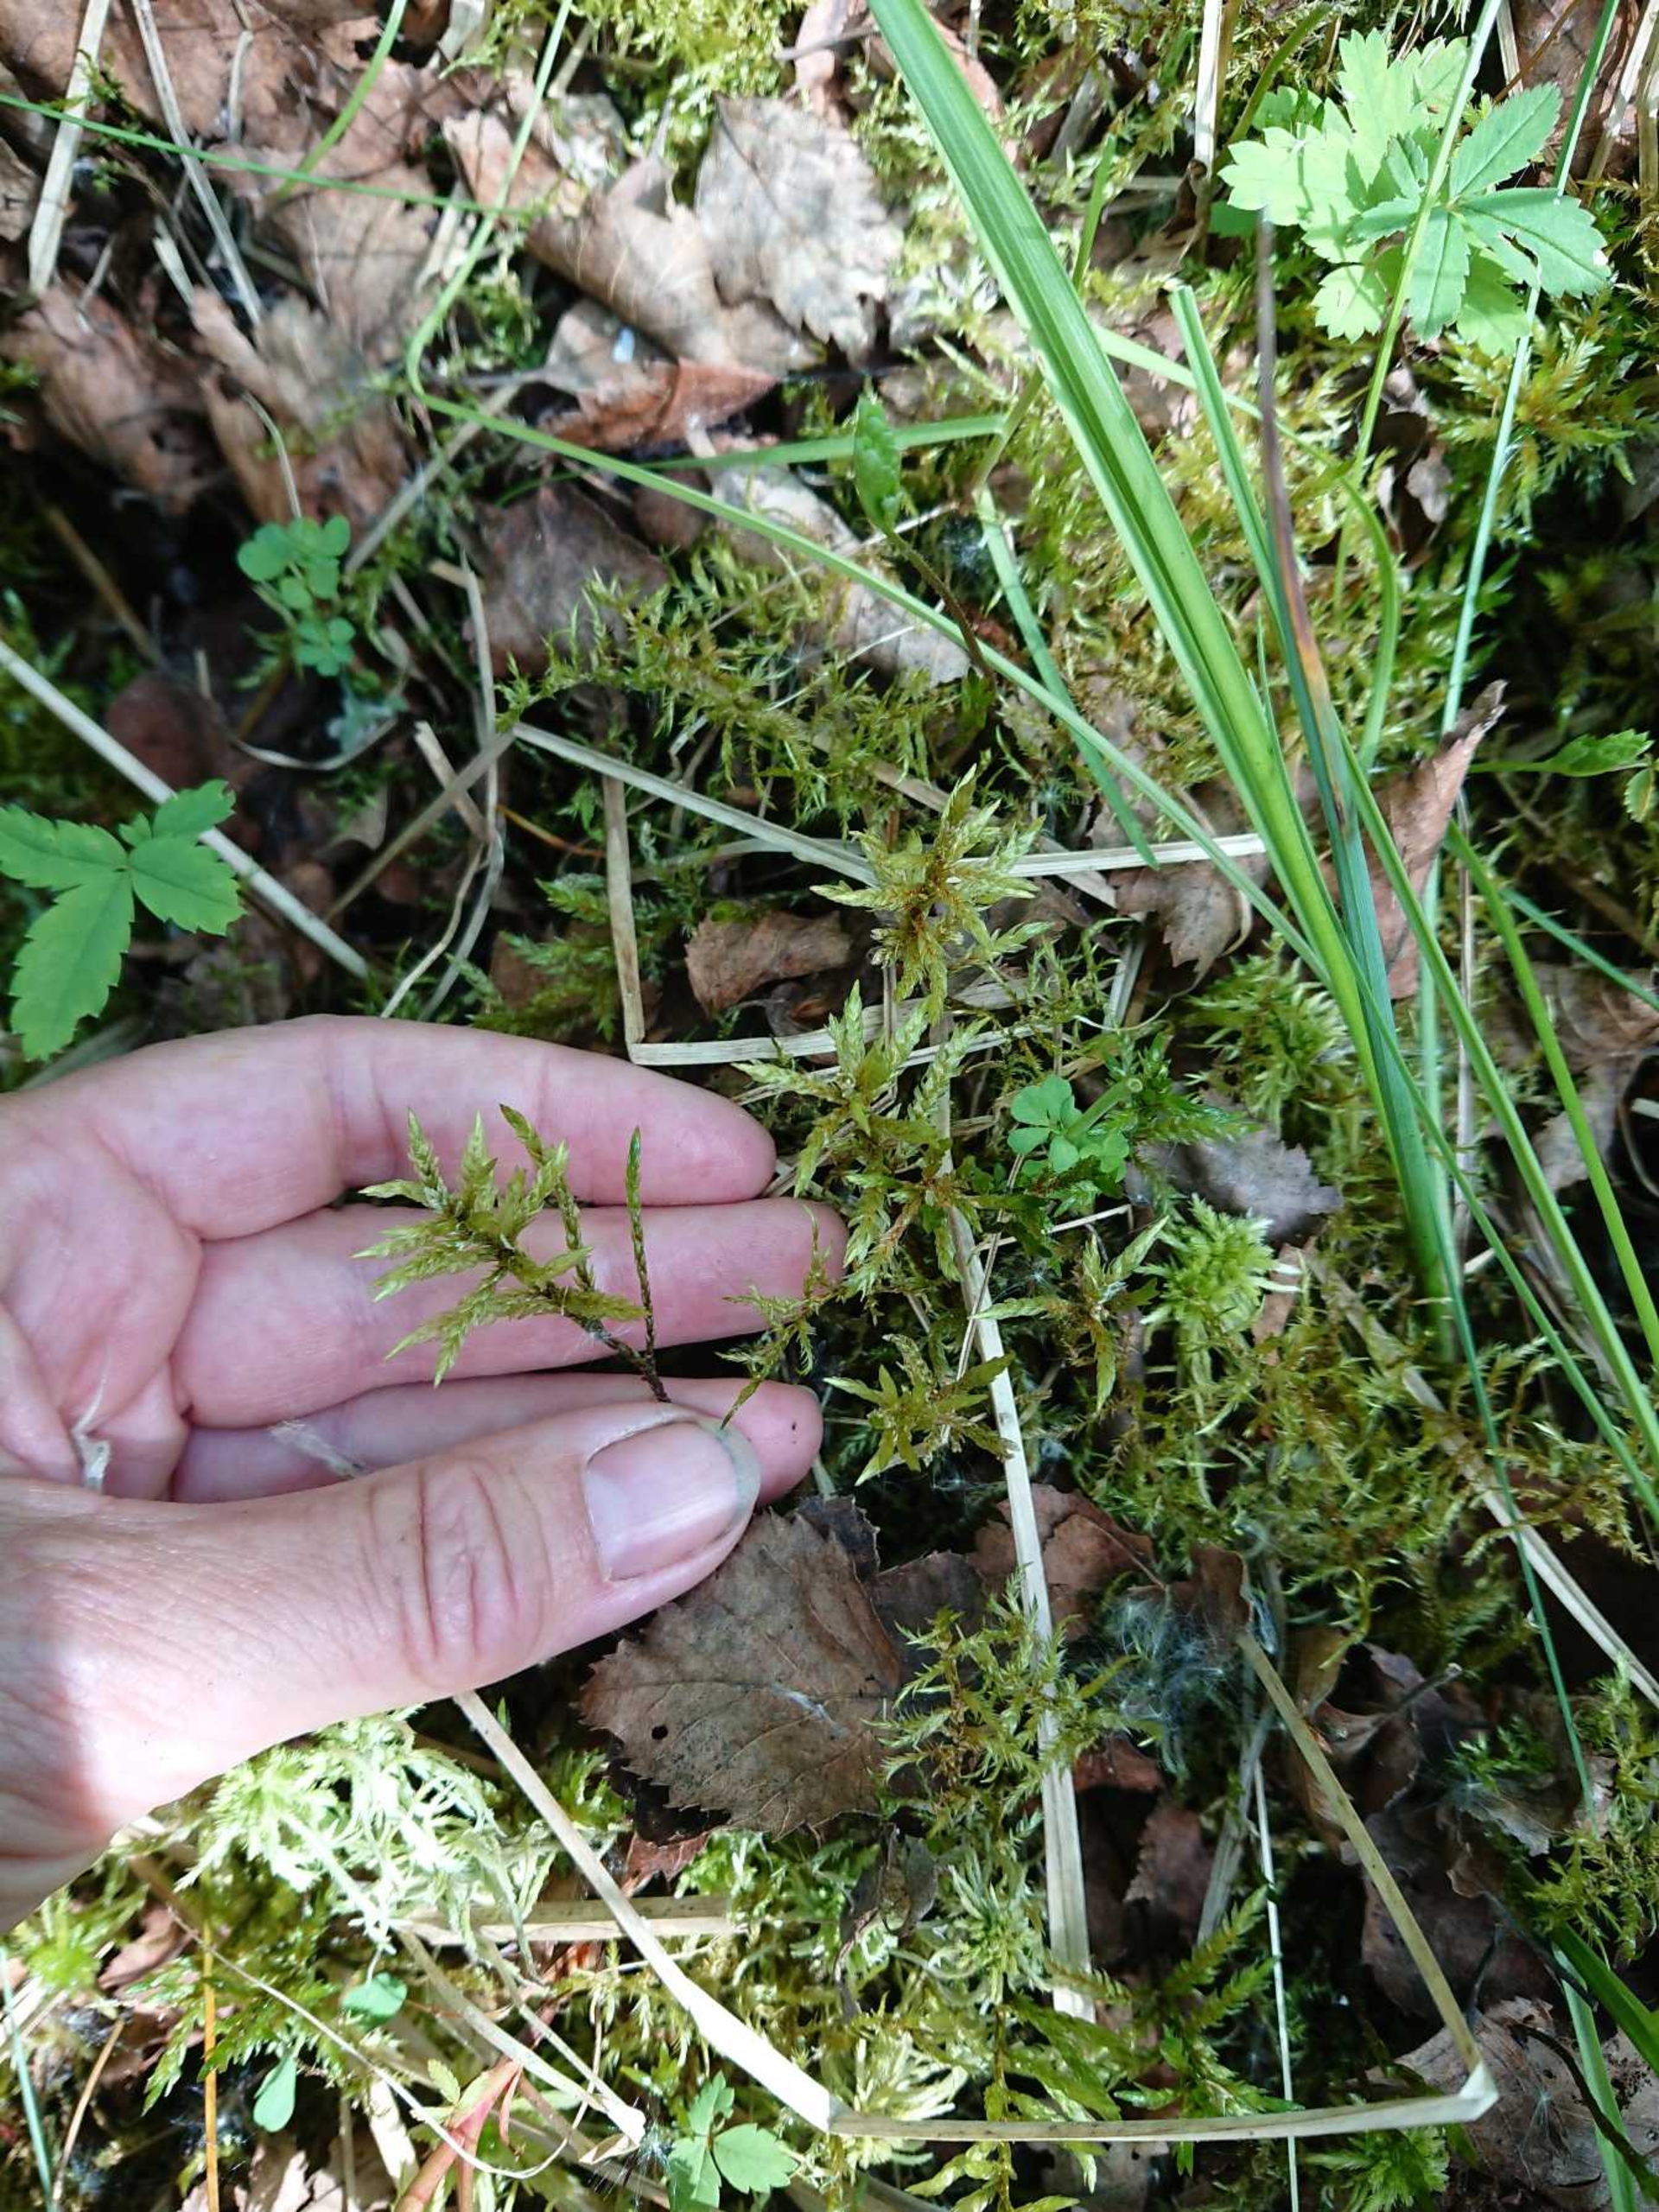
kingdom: Plantae
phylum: Bryophyta
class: Bryopsida
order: Hypnales
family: Climaciaceae
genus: Climacium
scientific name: Climacium dendroides
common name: Stor engkost
